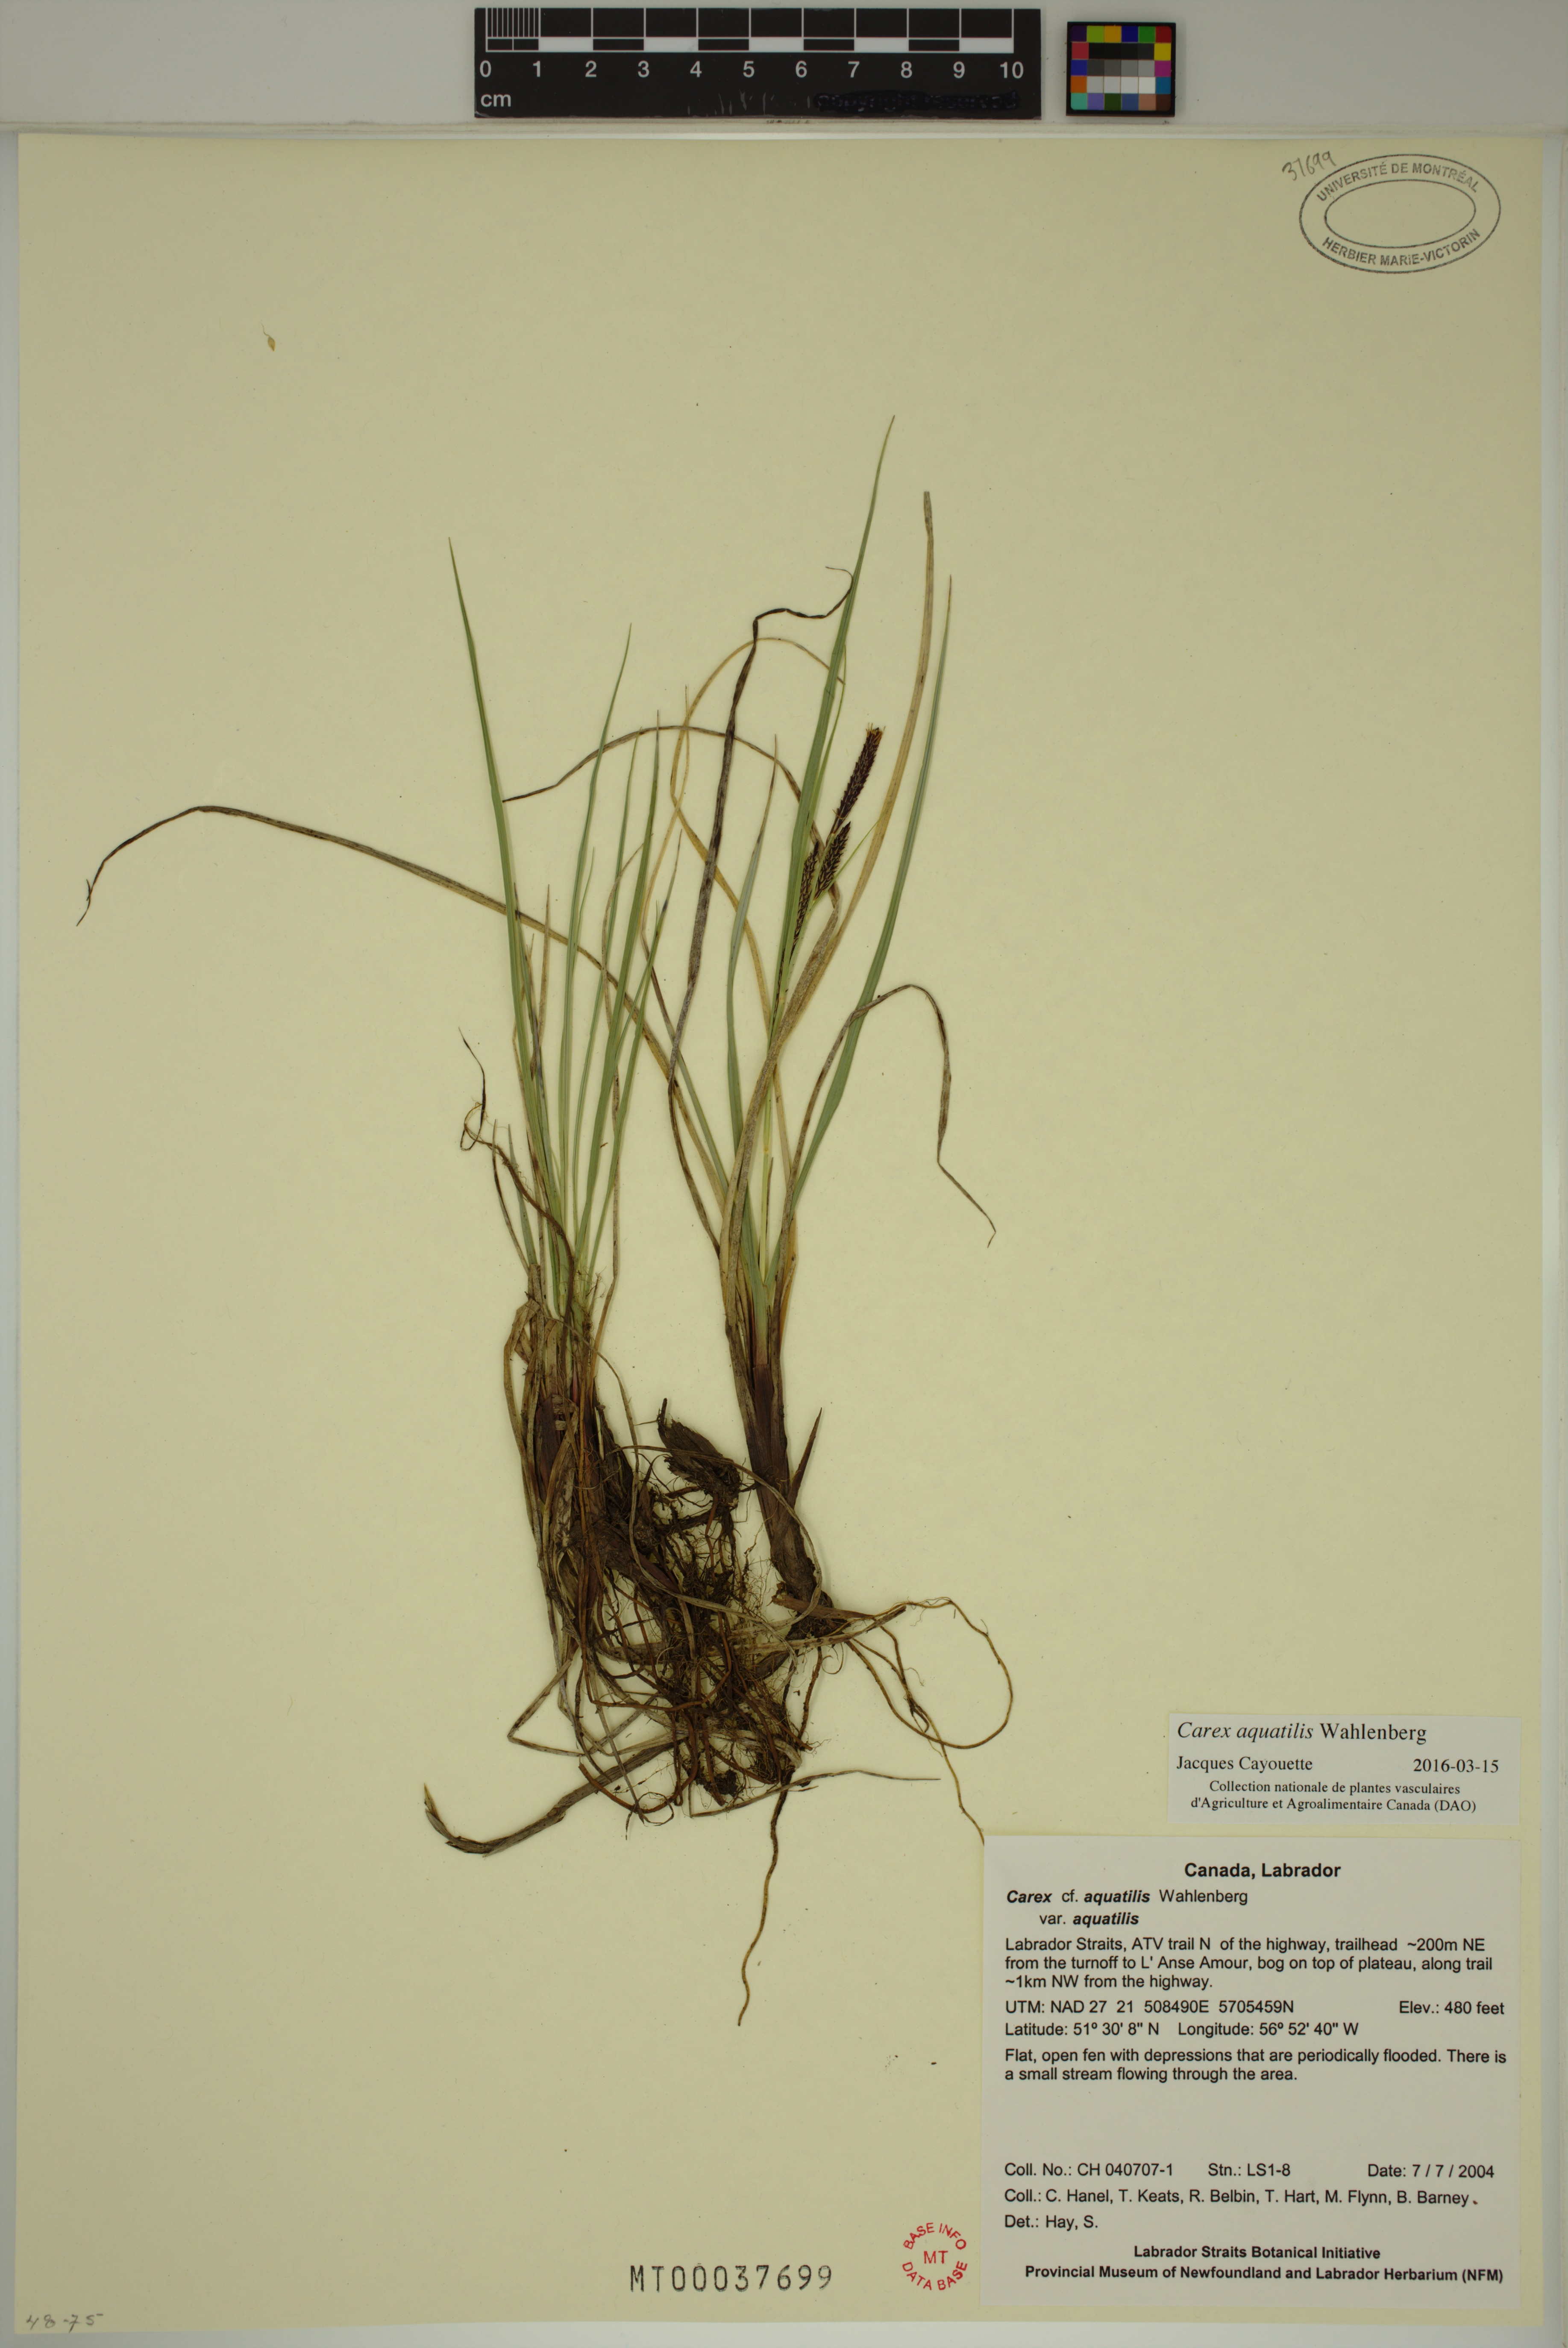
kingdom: Plantae
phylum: Tracheophyta
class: Liliopsida
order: Poales
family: Cyperaceae
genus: Carex
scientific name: Carex aquatilis
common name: Water sedge
